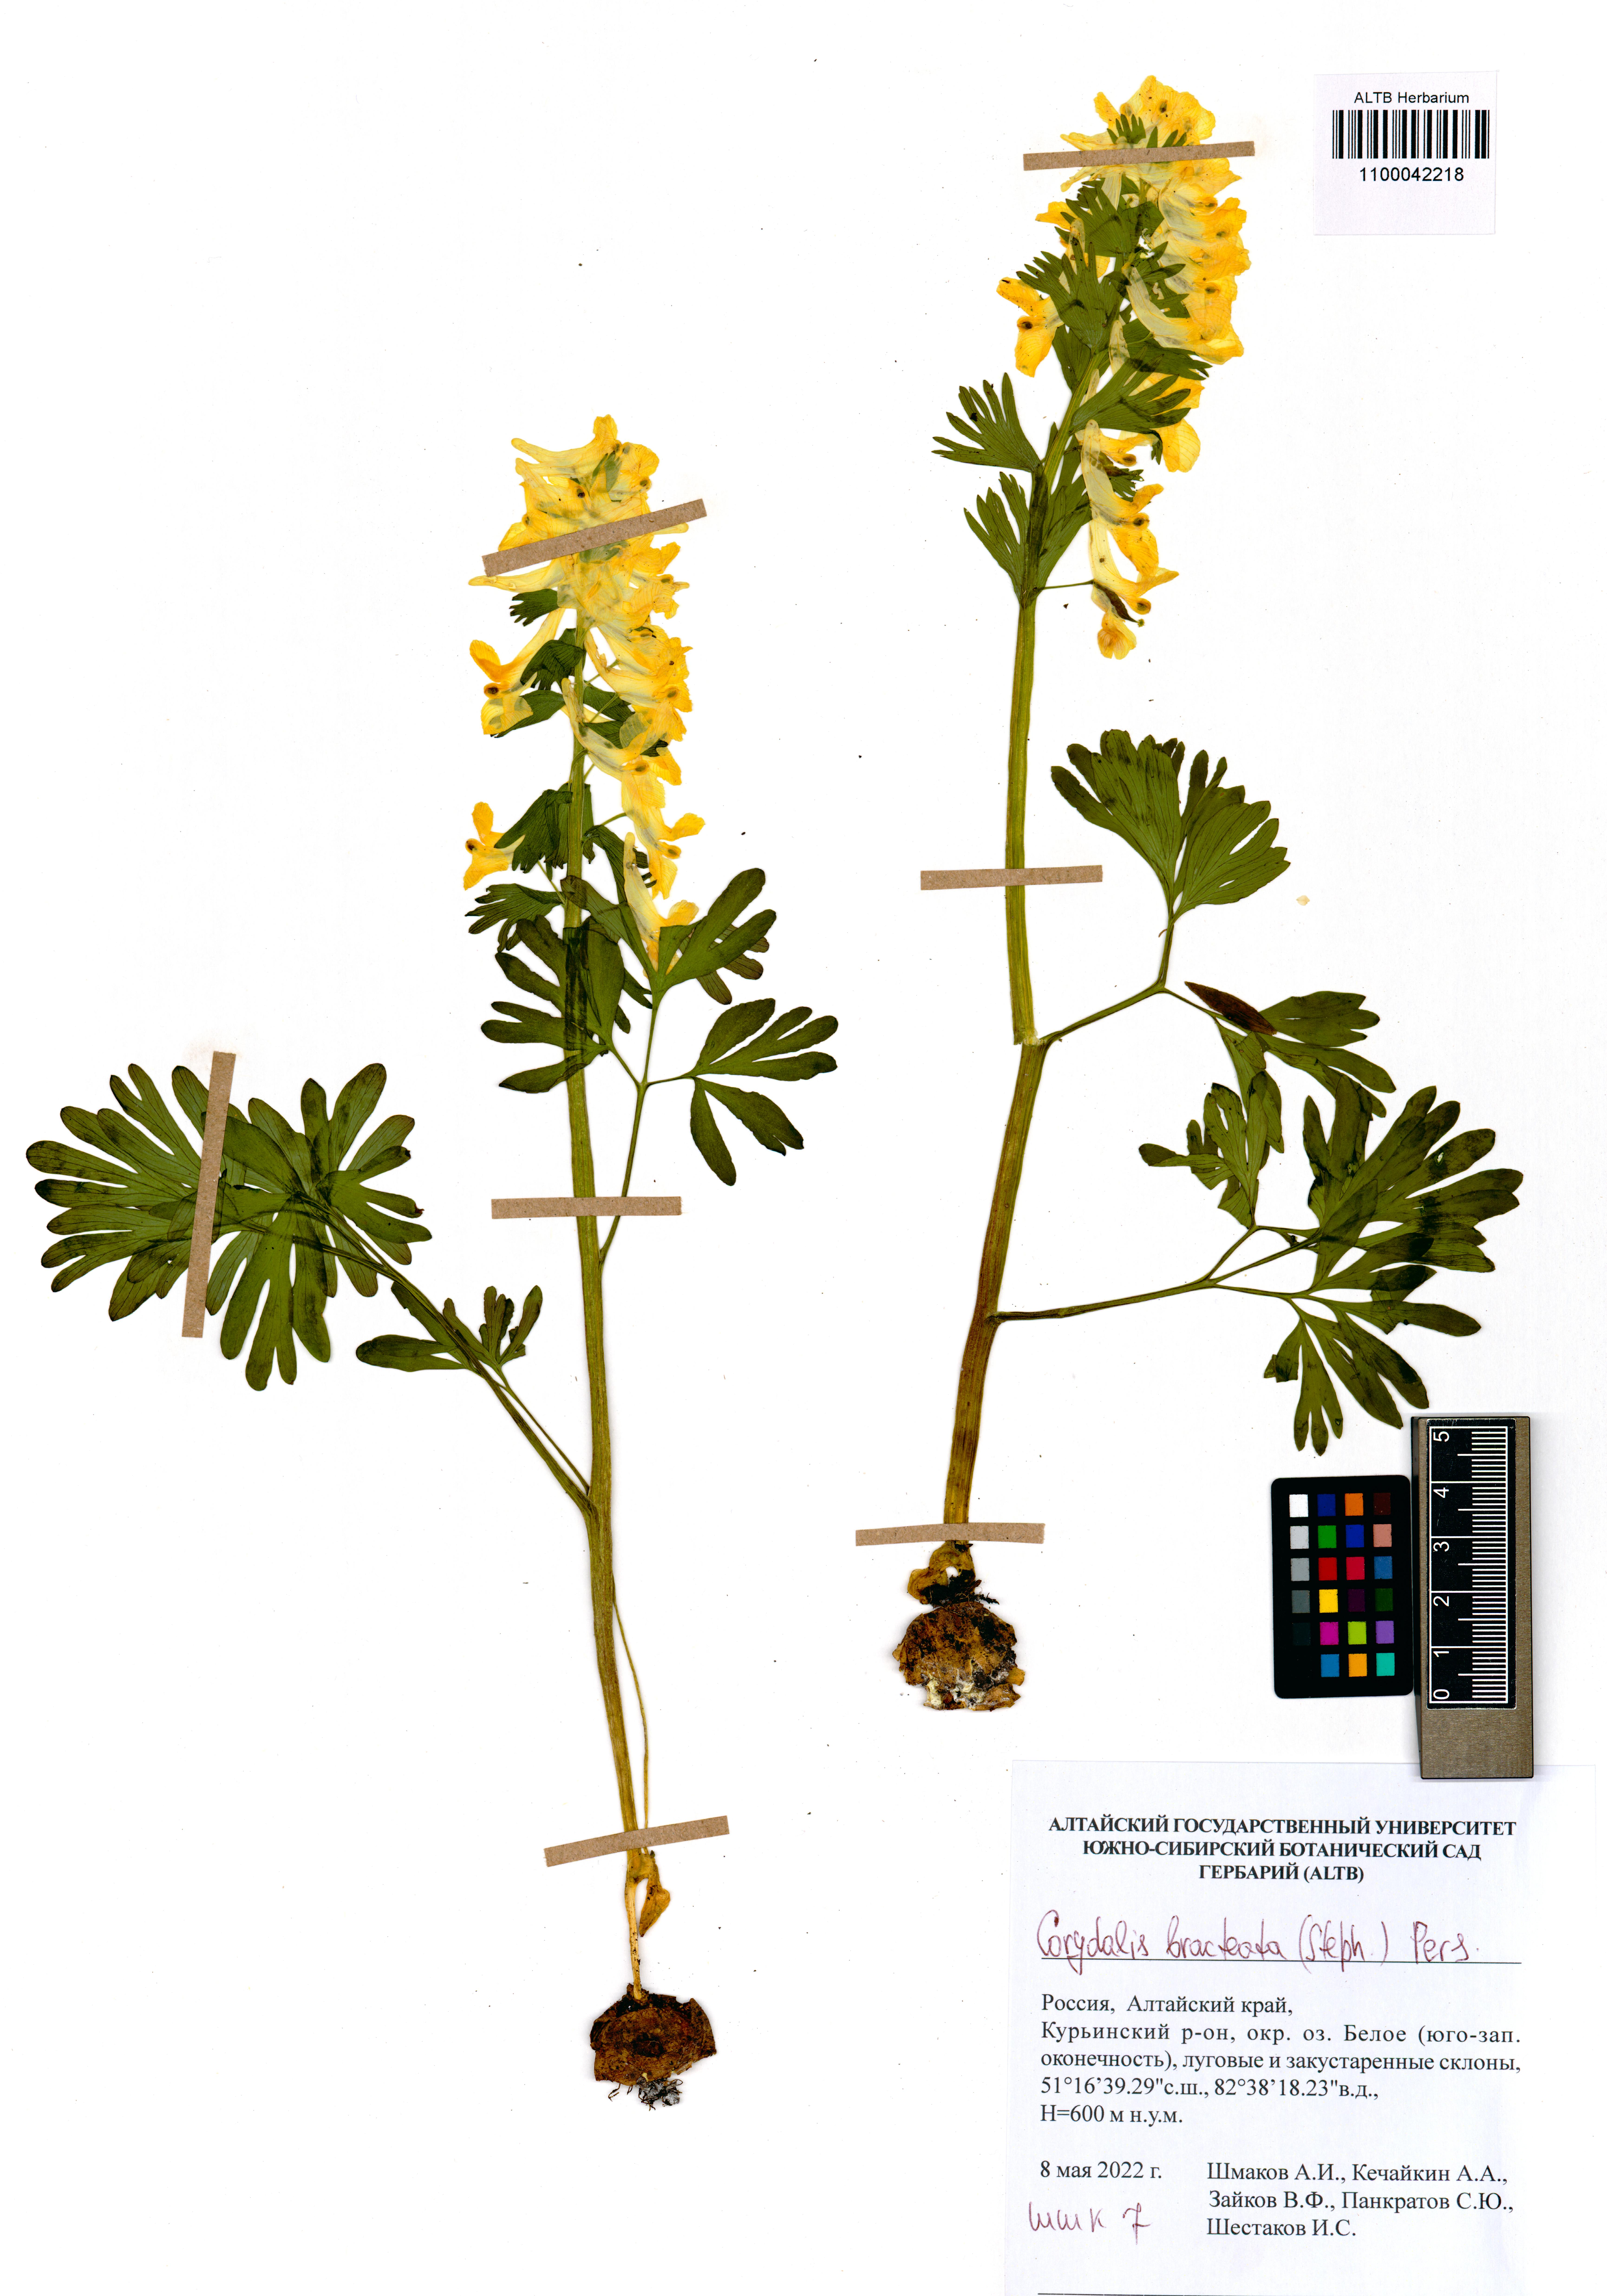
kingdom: Plantae
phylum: Tracheophyta
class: Magnoliopsida
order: Ranunculales
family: Papaveraceae
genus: Corydalis
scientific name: Corydalis bracteata
